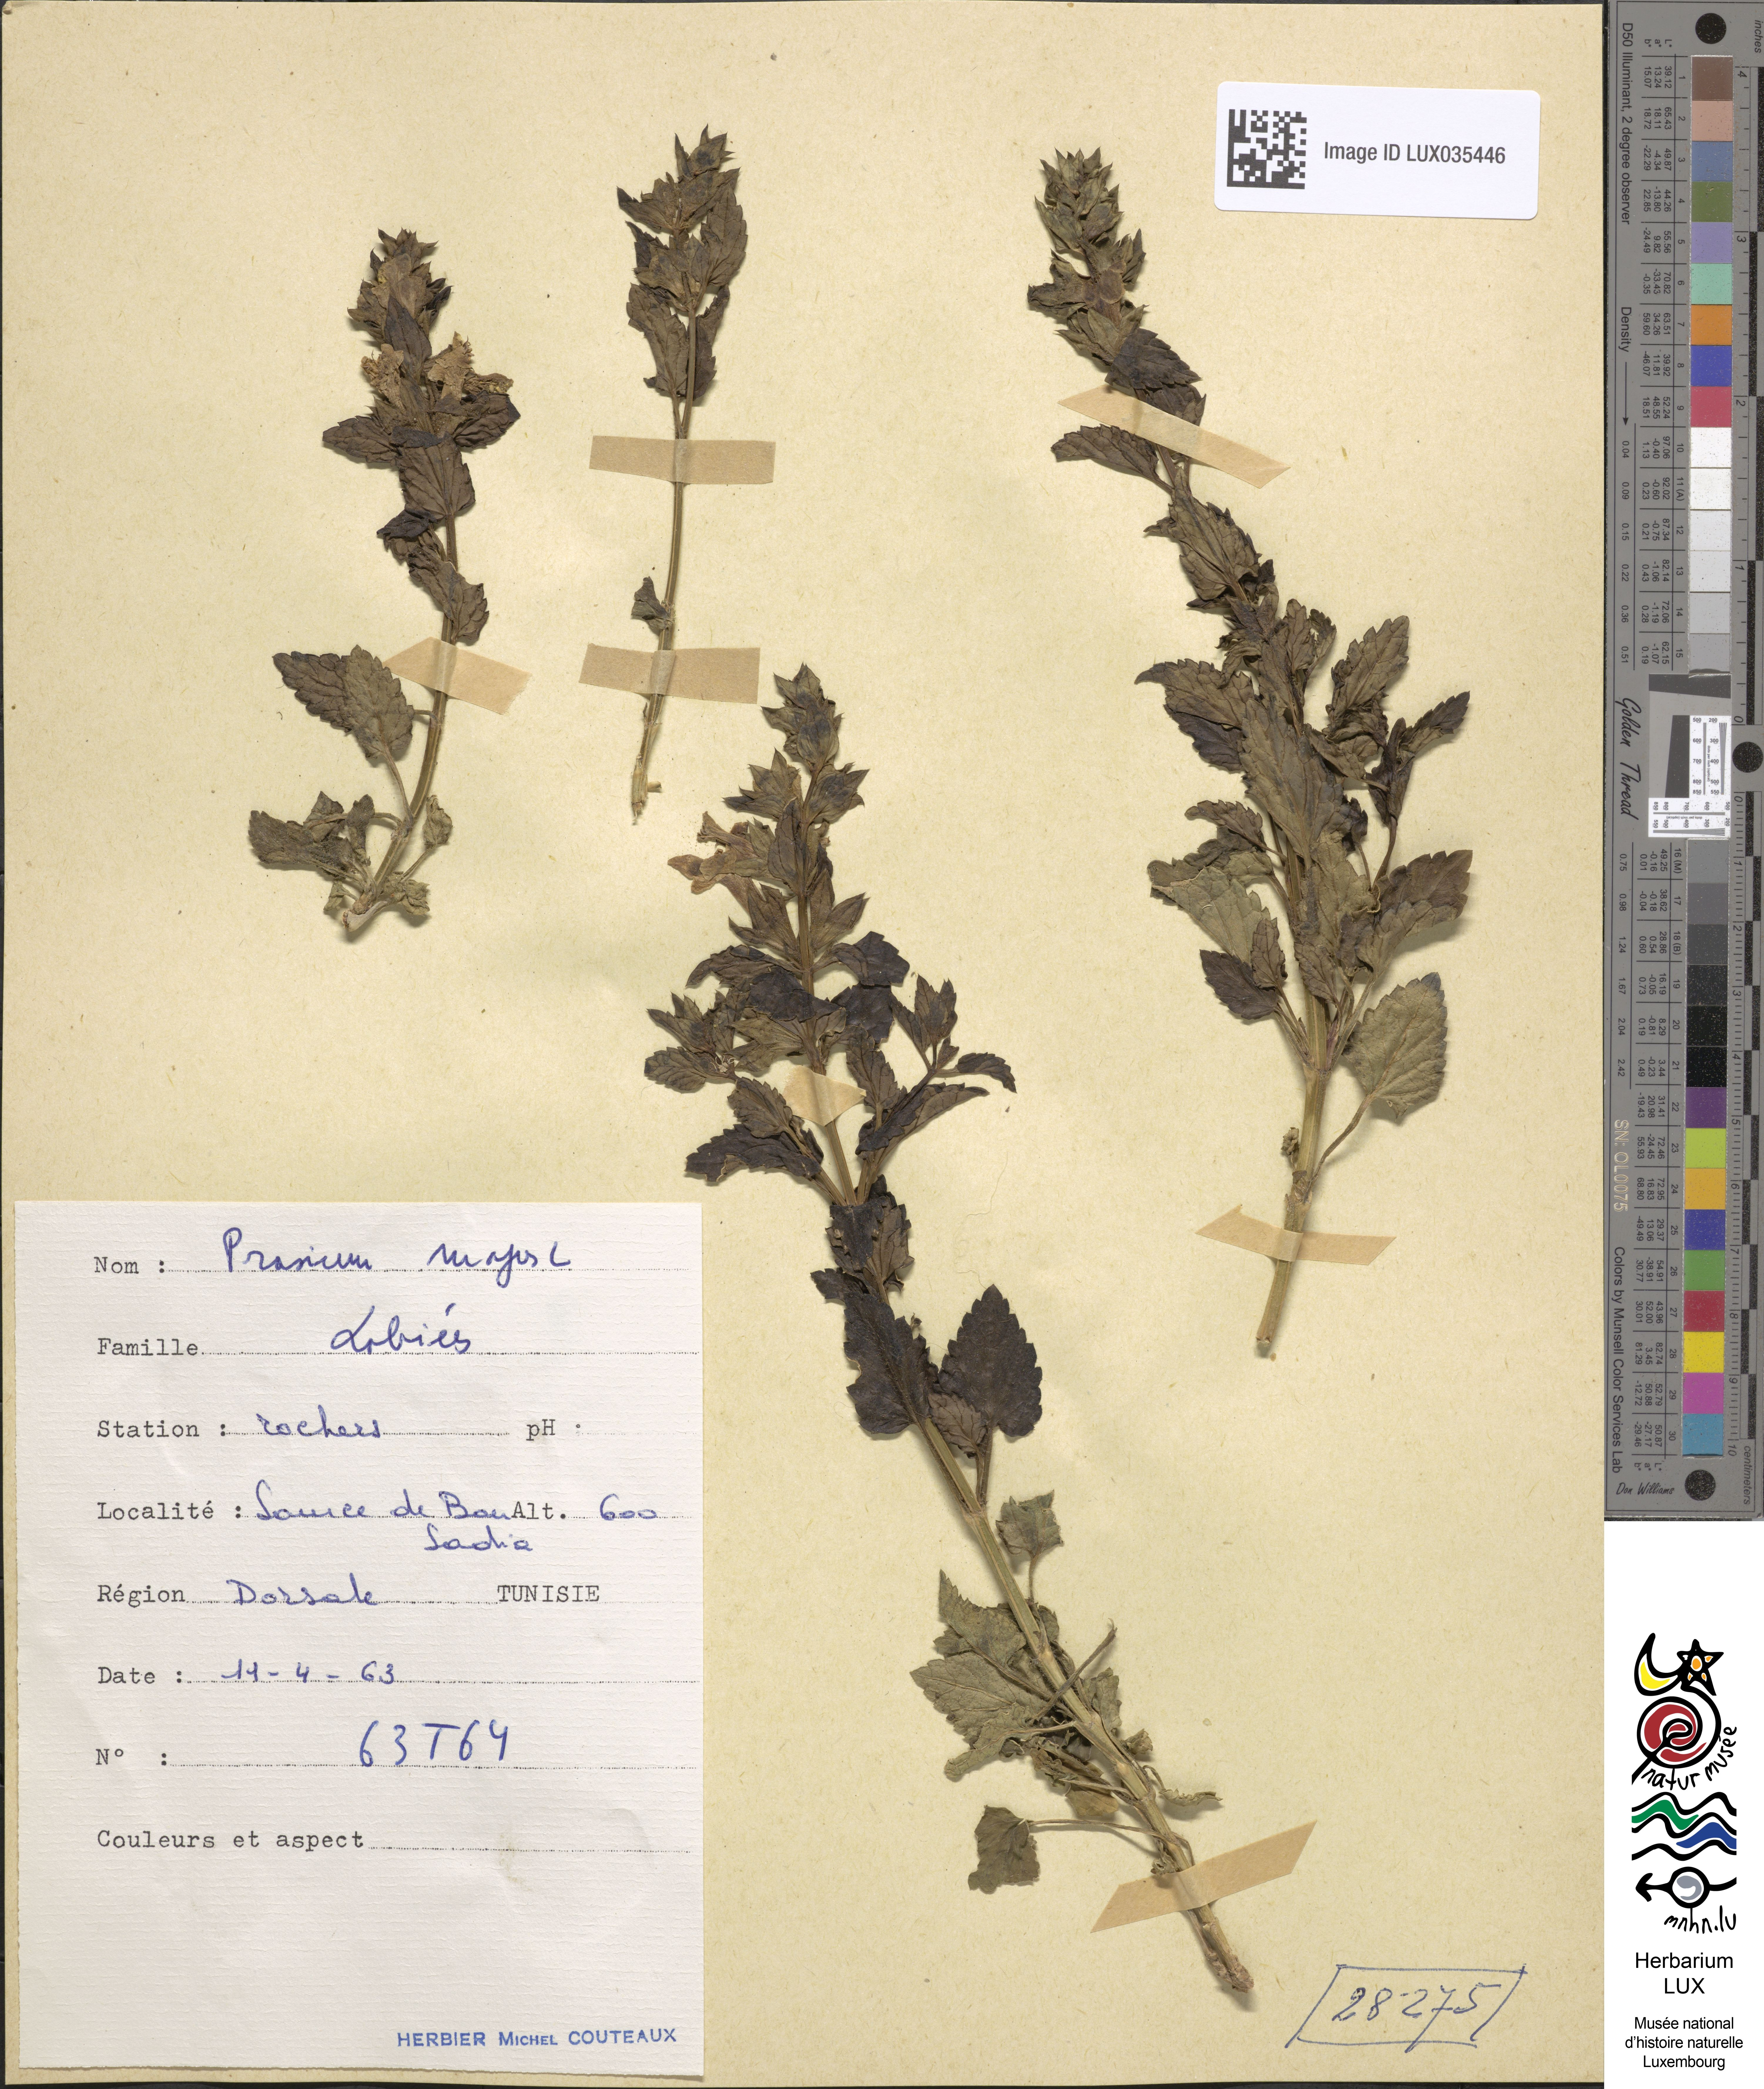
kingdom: Plantae
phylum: Tracheophyta
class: Magnoliopsida
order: Lamiales
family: Lamiaceae
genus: Prasium
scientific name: Prasium majus
